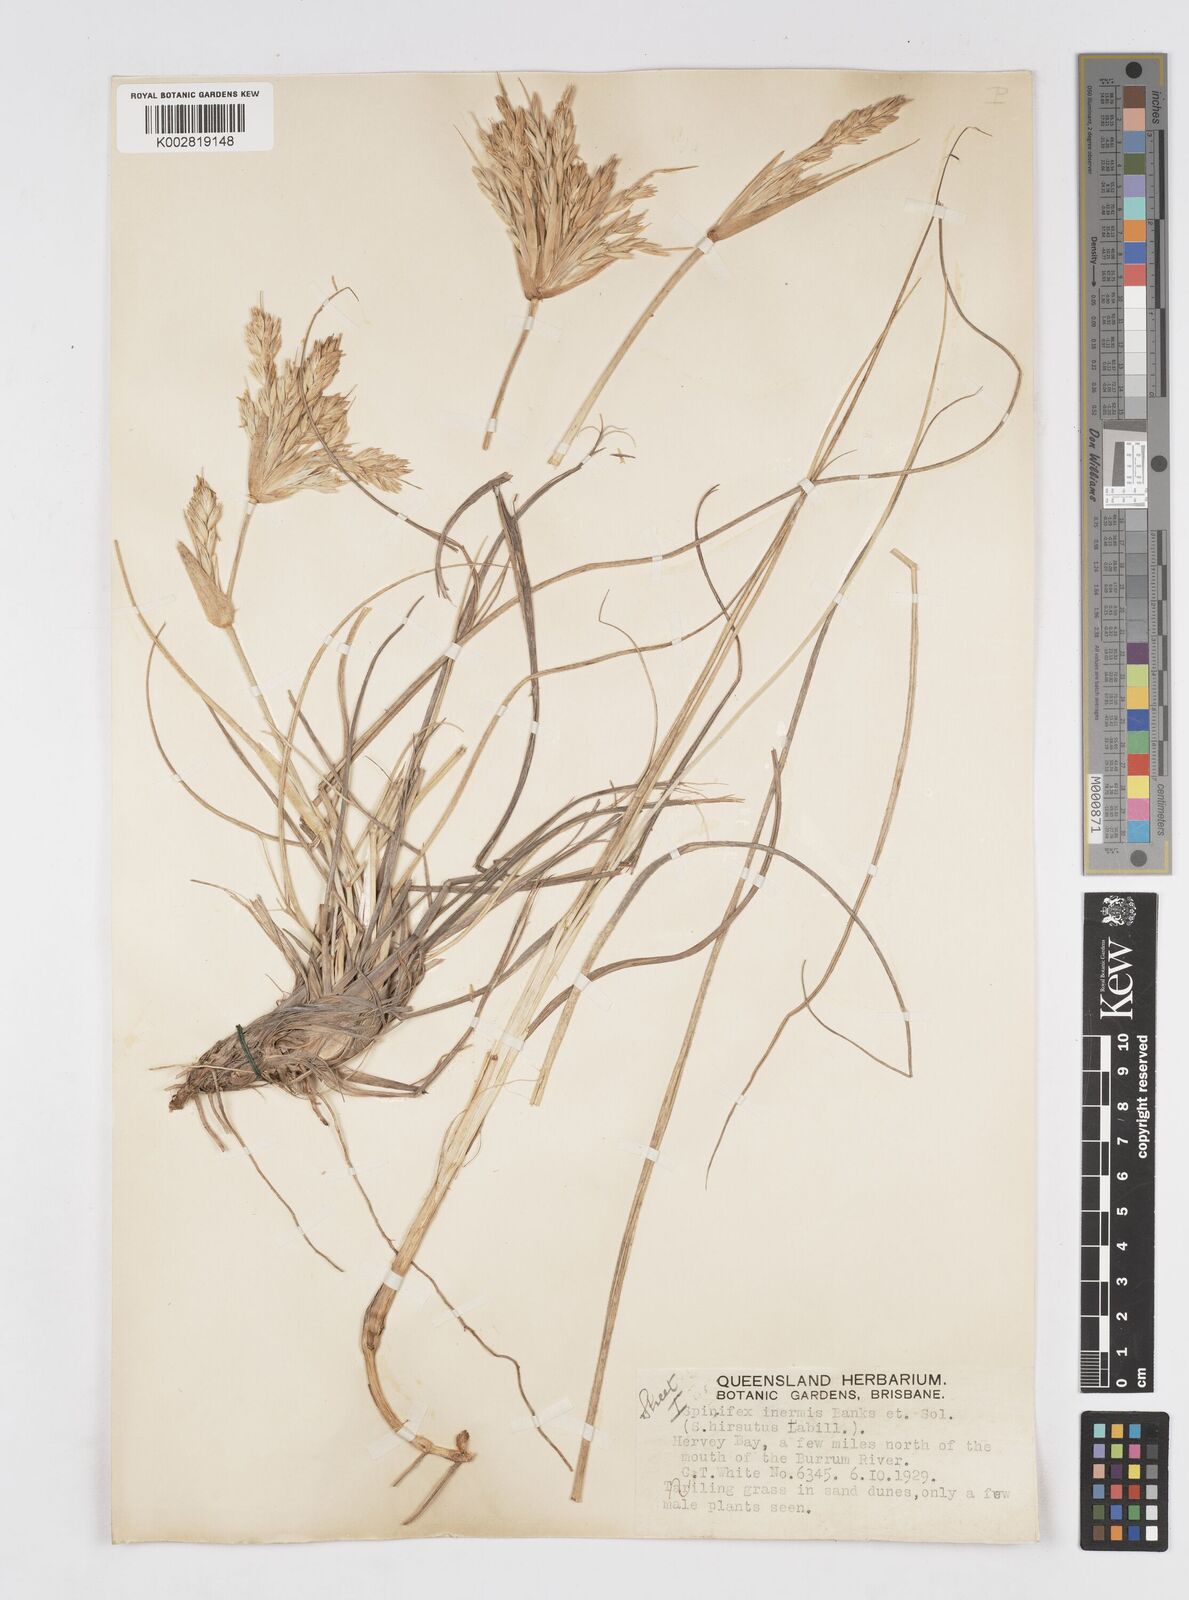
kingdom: Plantae
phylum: Tracheophyta
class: Liliopsida
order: Poales
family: Poaceae
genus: Spinifex
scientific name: Spinifex hirsutus
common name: Hairy spinifex
